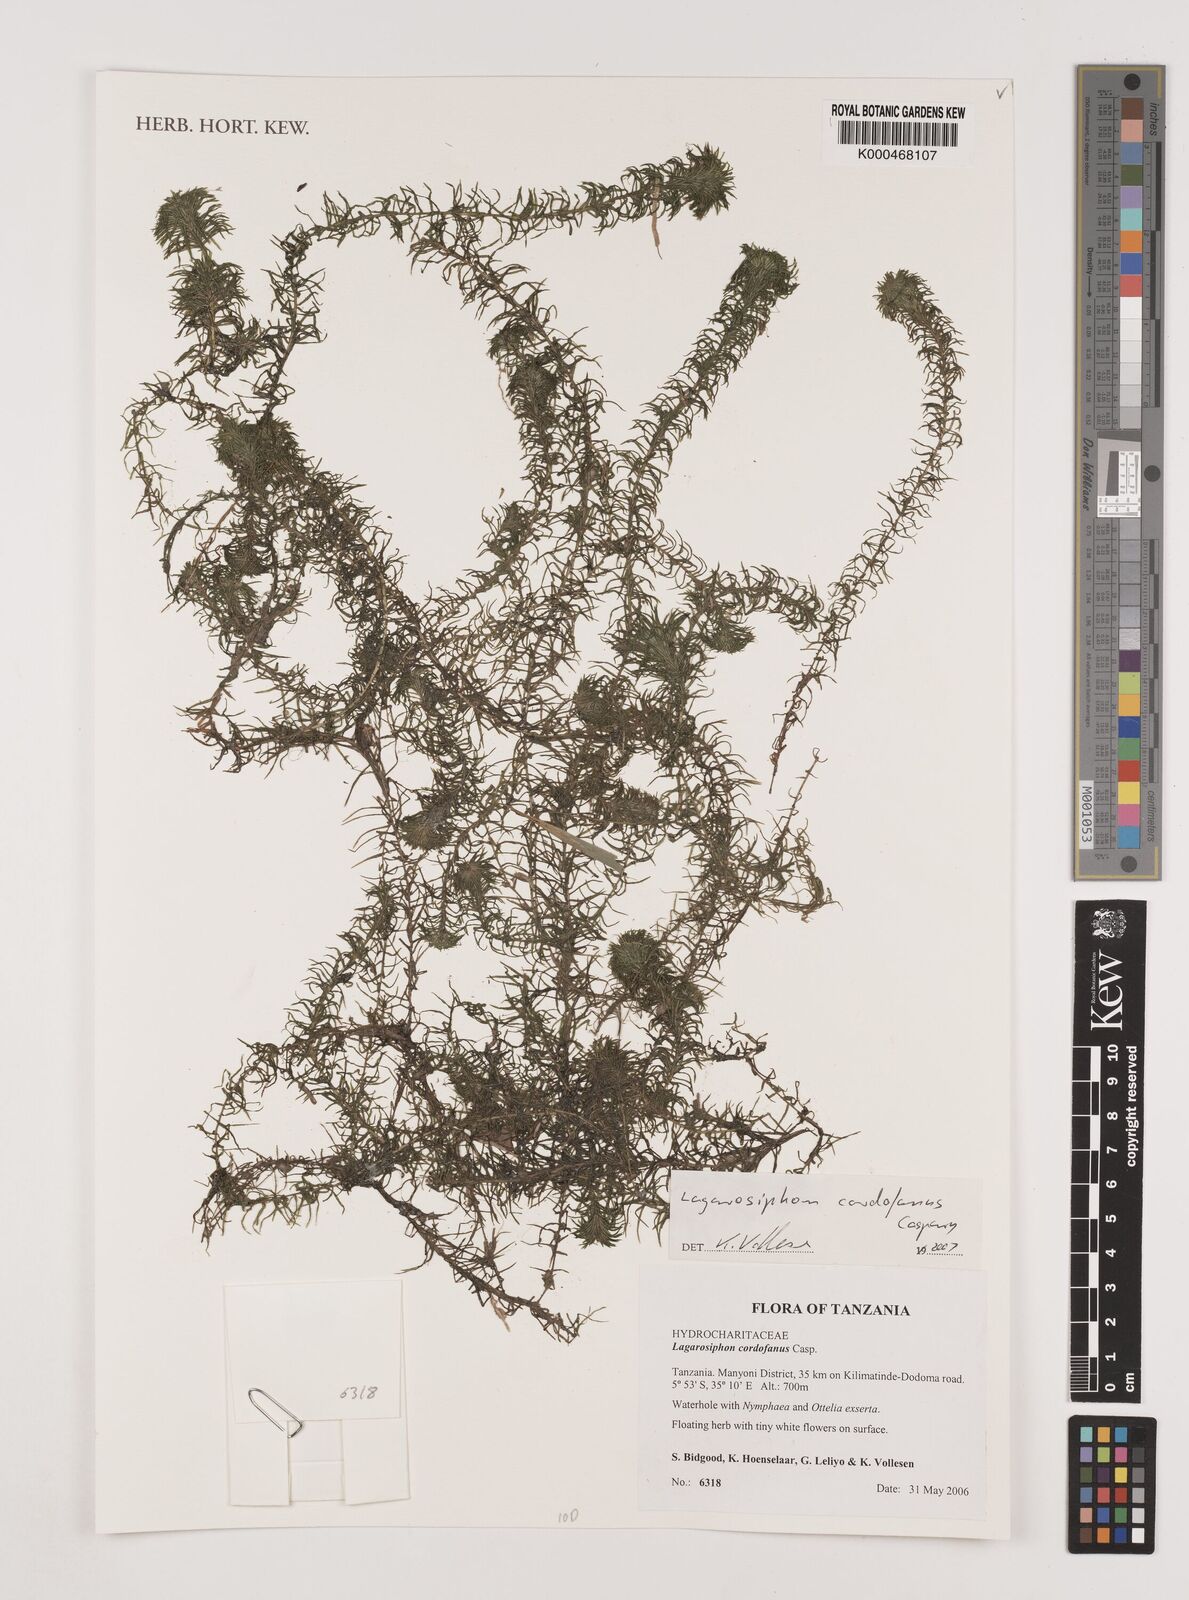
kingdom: Plantae
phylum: Tracheophyta
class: Liliopsida
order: Alismatales
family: Hydrocharitaceae
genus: Lagarosiphon
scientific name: Lagarosiphon cordofanus
